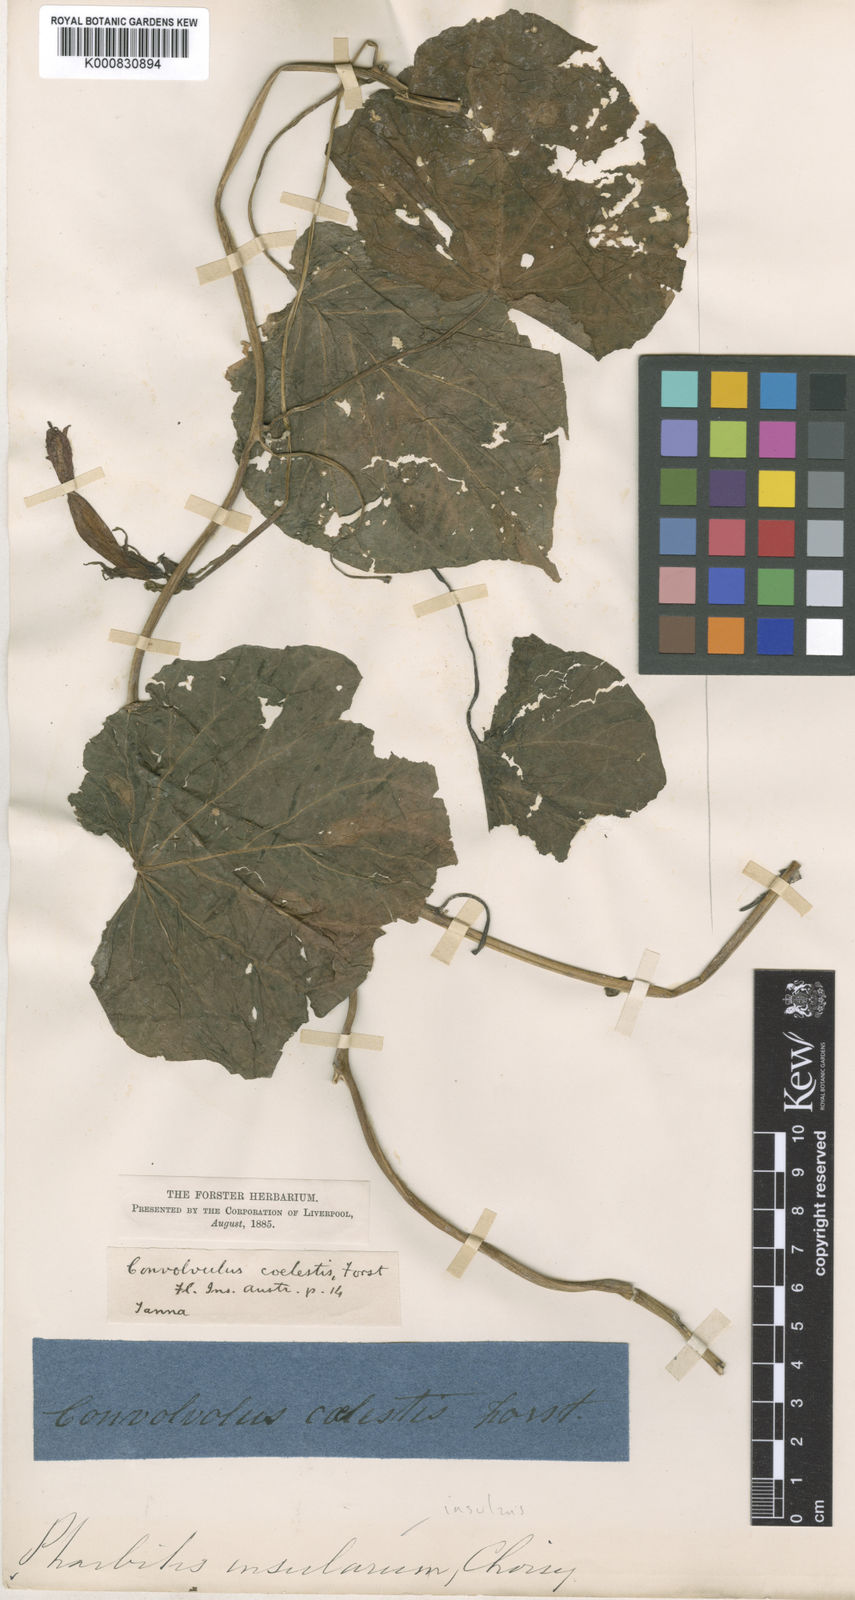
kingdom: Plantae
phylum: Tracheophyta
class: Magnoliopsida
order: Solanales
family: Convolvulaceae
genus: Ipomoea
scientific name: Ipomoea indica
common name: Blue dawnflower
